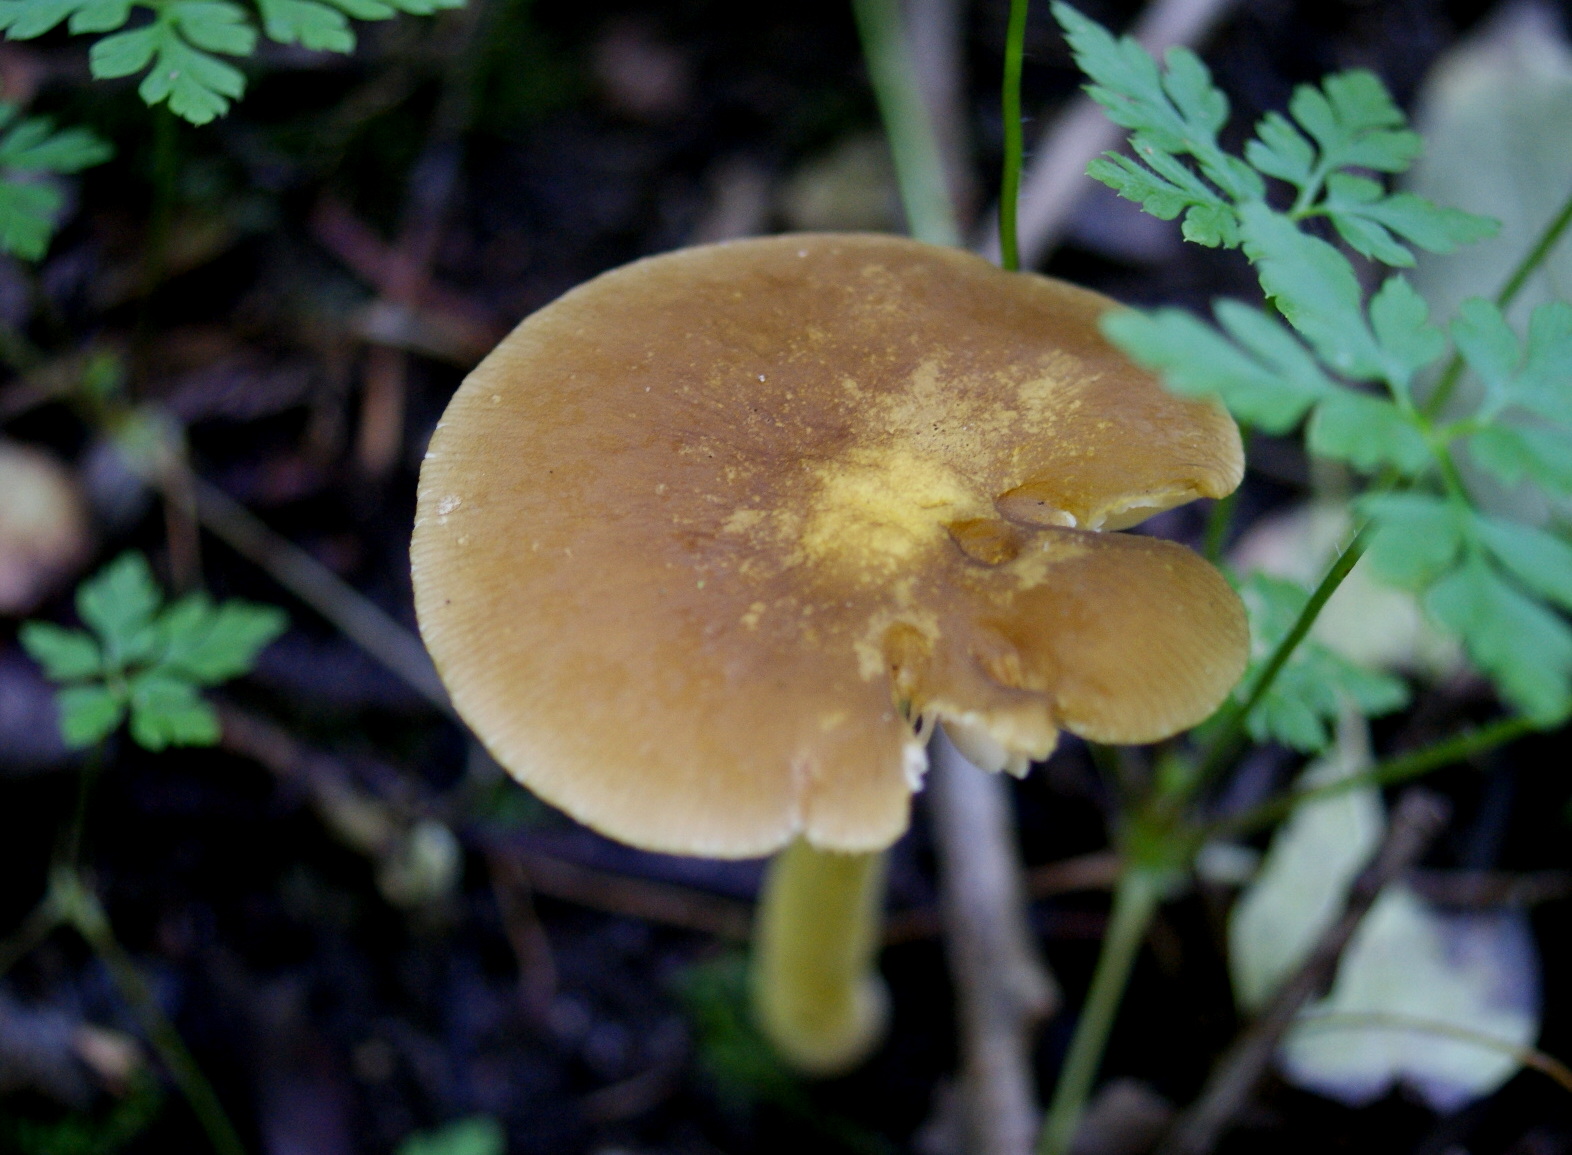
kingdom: Fungi
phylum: Basidiomycota
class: Agaricomycetes
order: Agaricales
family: Pluteaceae
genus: Pluteus
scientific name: Pluteus romellii
